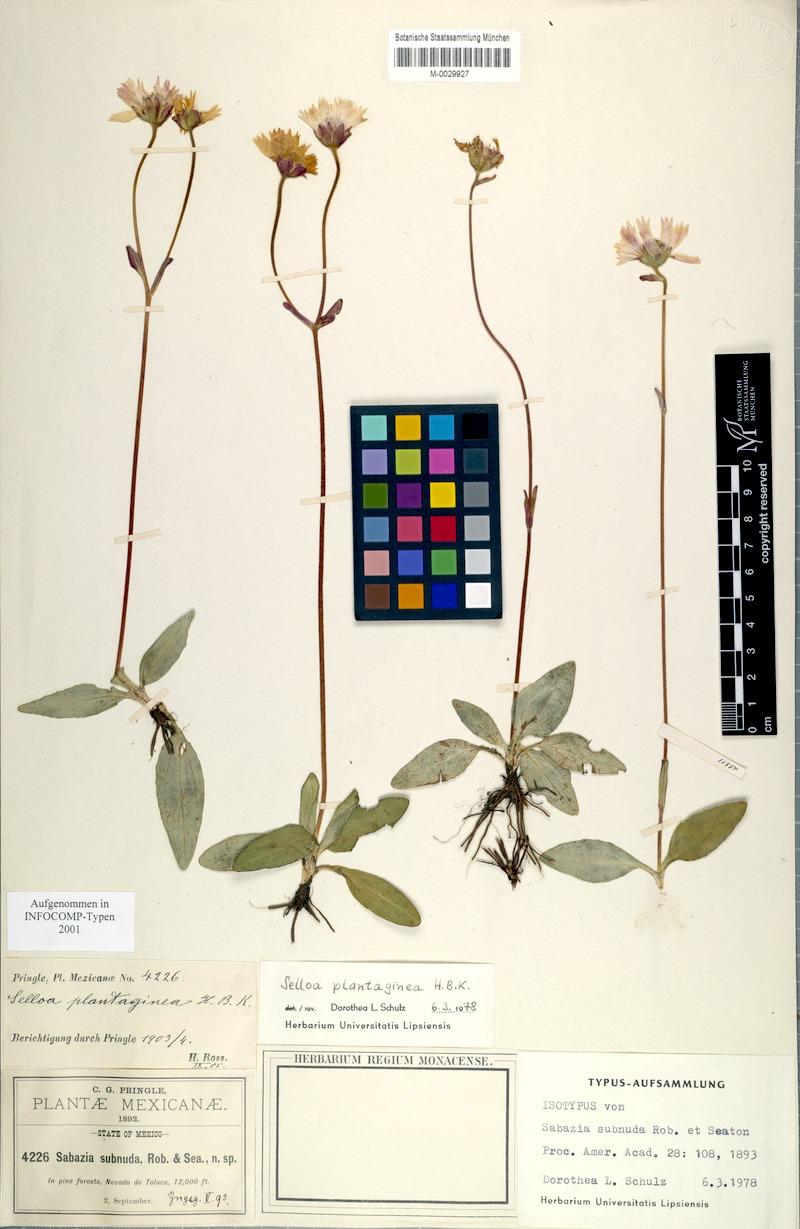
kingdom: Plantae
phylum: Tracheophyta
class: Magnoliopsida
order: Asterales
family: Asteraceae
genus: Selloa
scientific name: Selloa plantaginea
